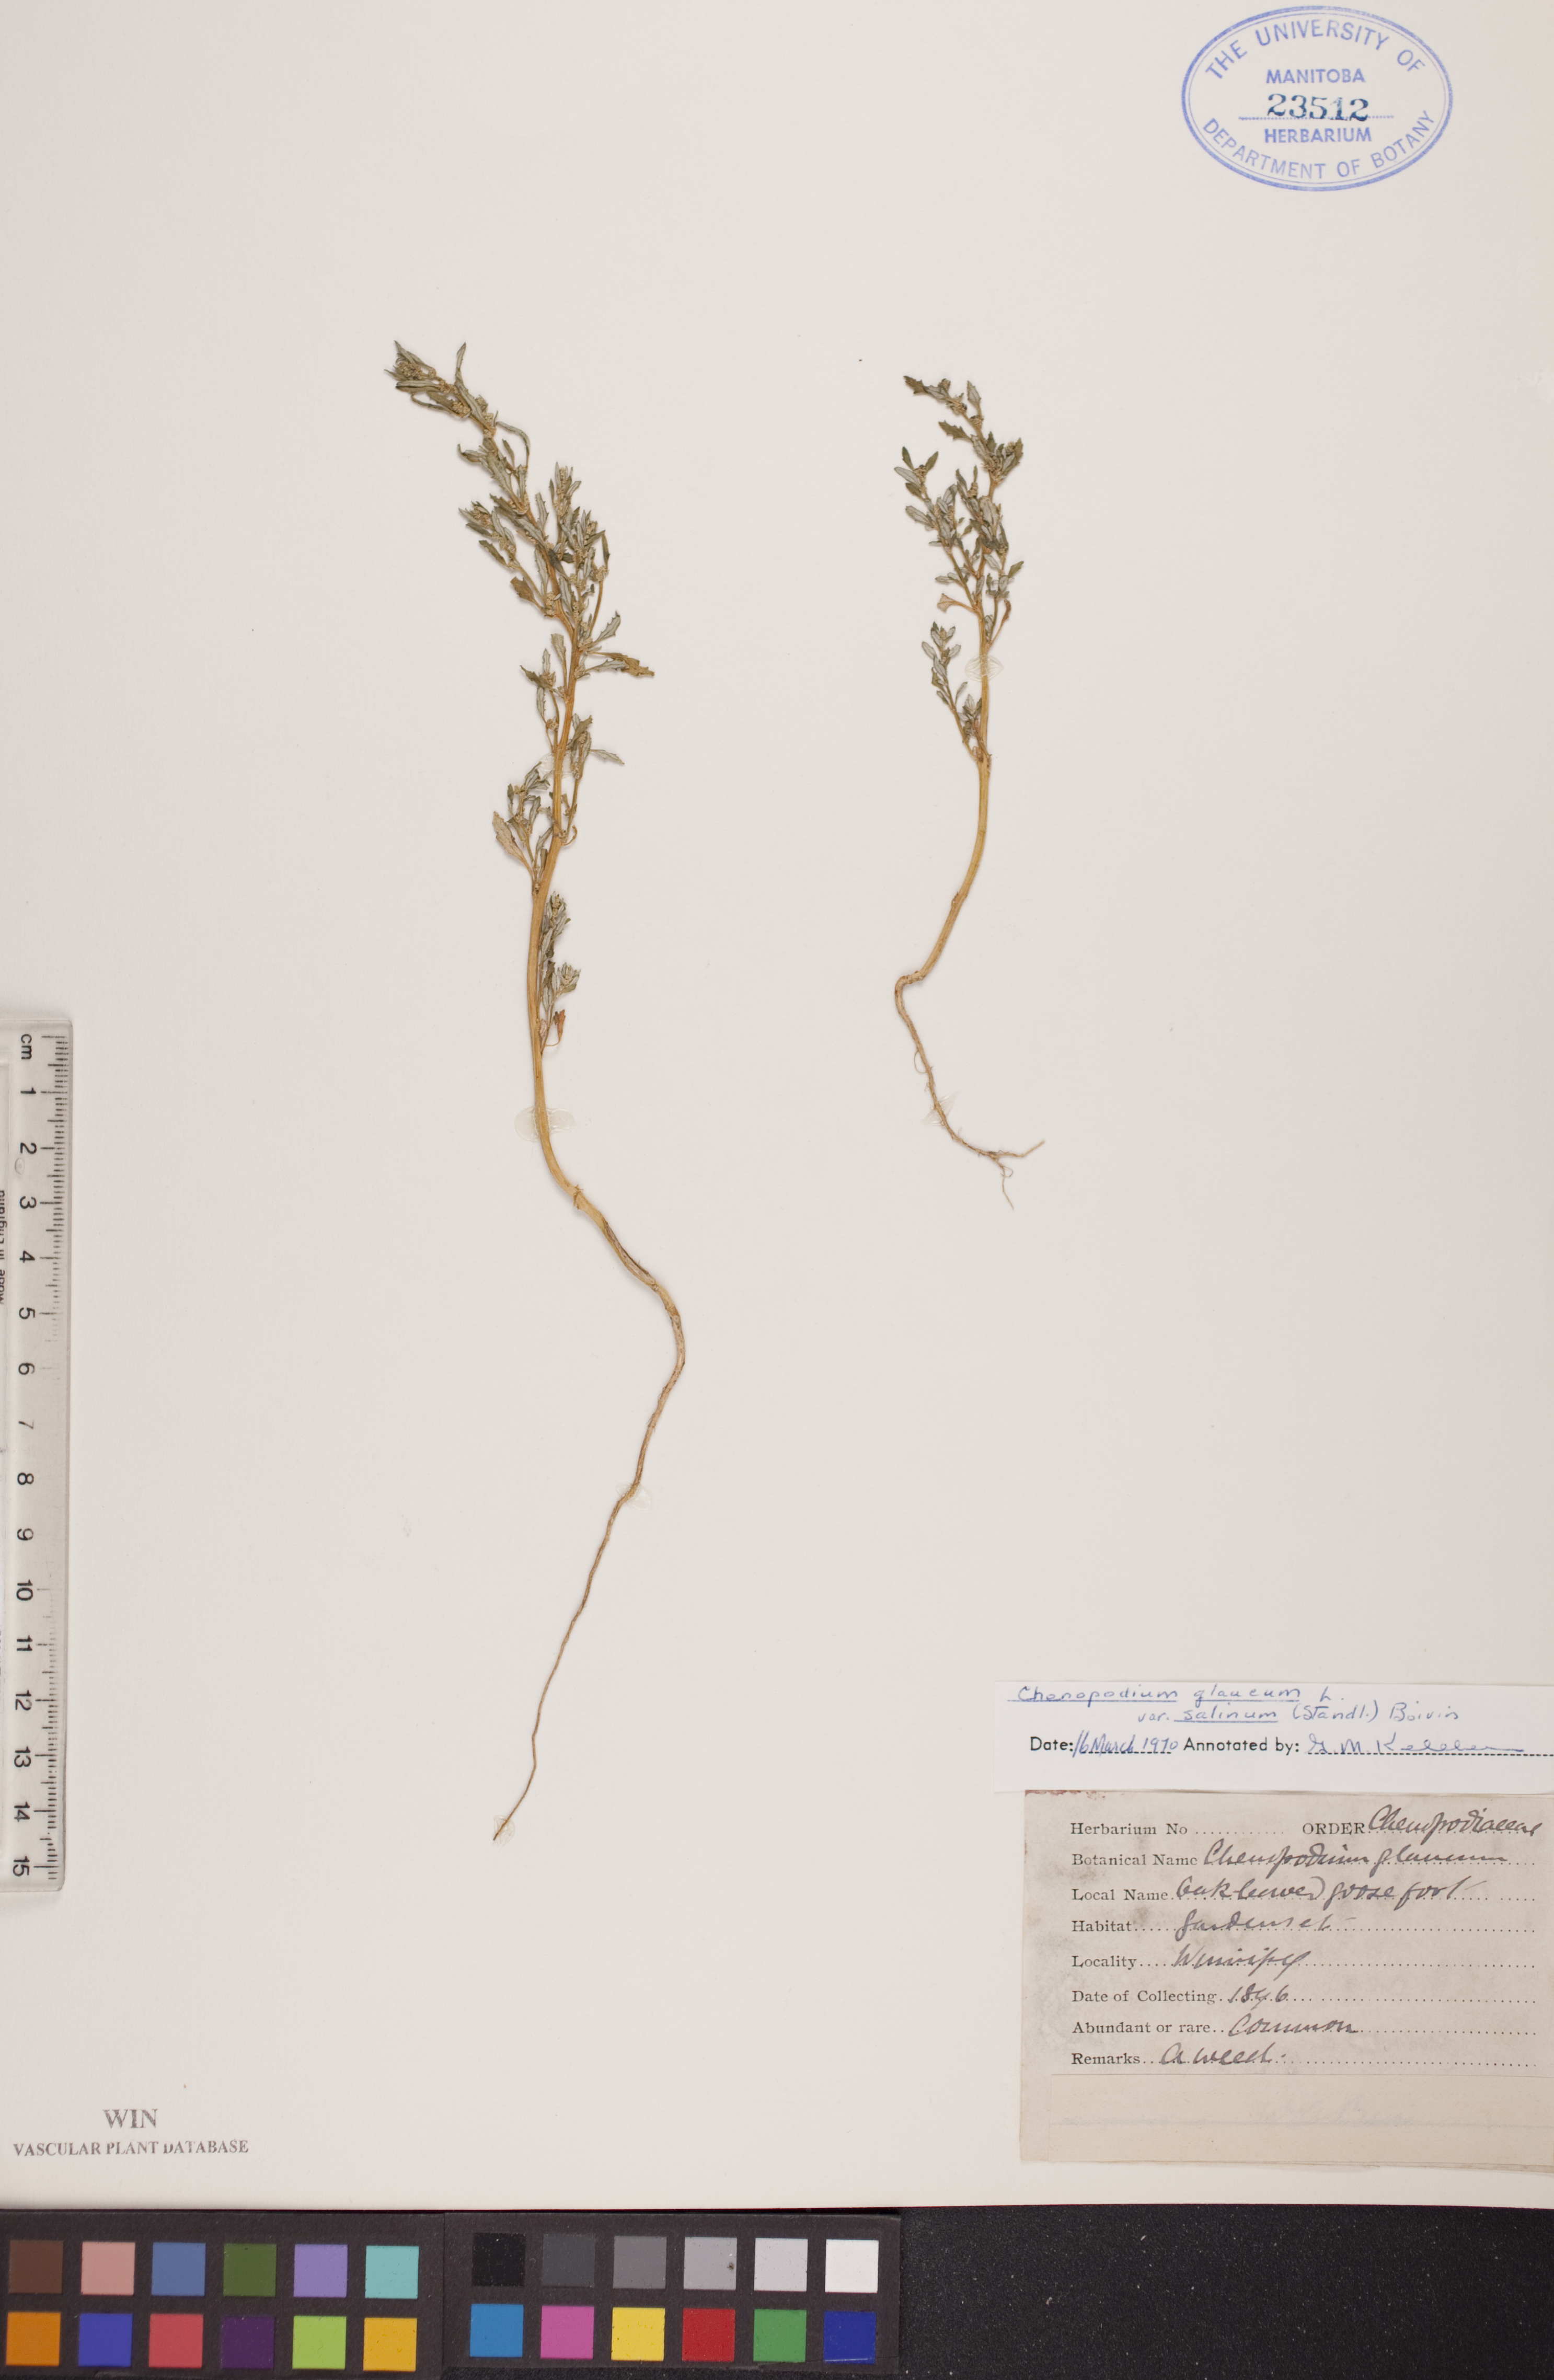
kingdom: Plantae
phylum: Tracheophyta
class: Magnoliopsida
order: Caryophyllales
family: Amaranthaceae
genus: Oxybasis
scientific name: Oxybasis salina
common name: Rocky mountain goosefoot
